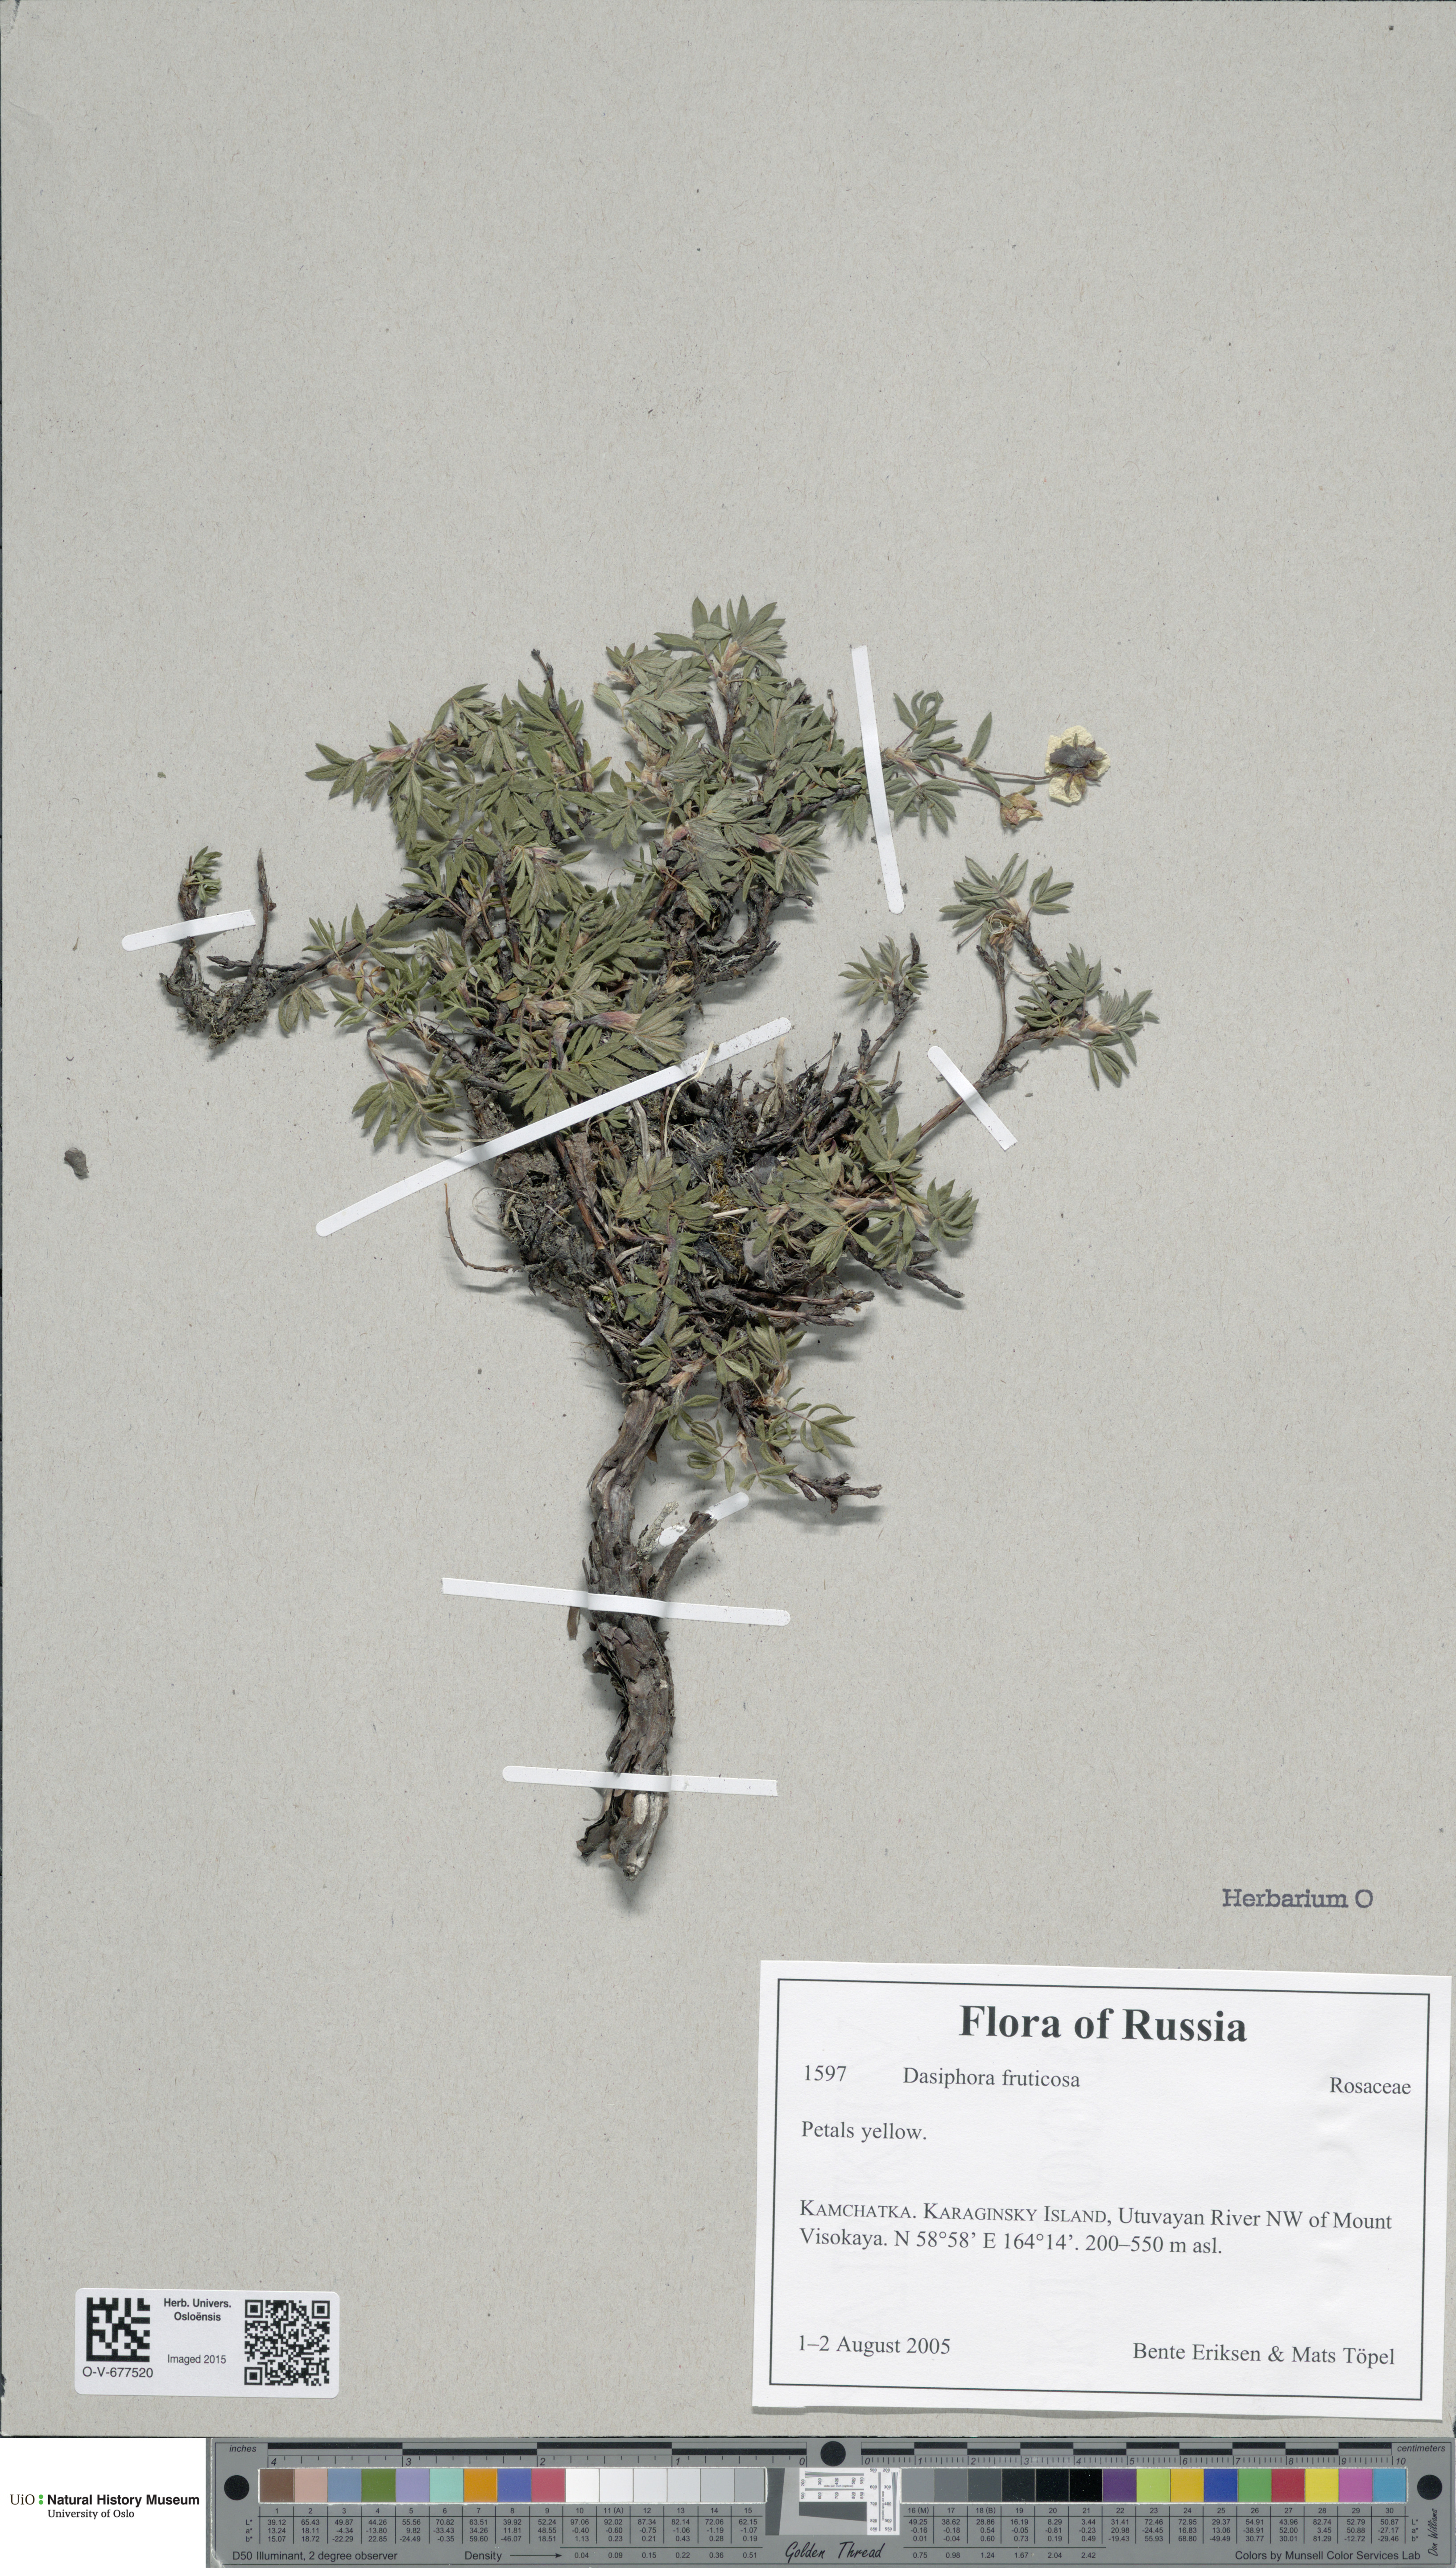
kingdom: Plantae
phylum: Tracheophyta
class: Magnoliopsida
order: Rosales
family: Rosaceae
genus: Dasiphora
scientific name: Dasiphora fruticosa
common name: Shrubby cinquefoil
